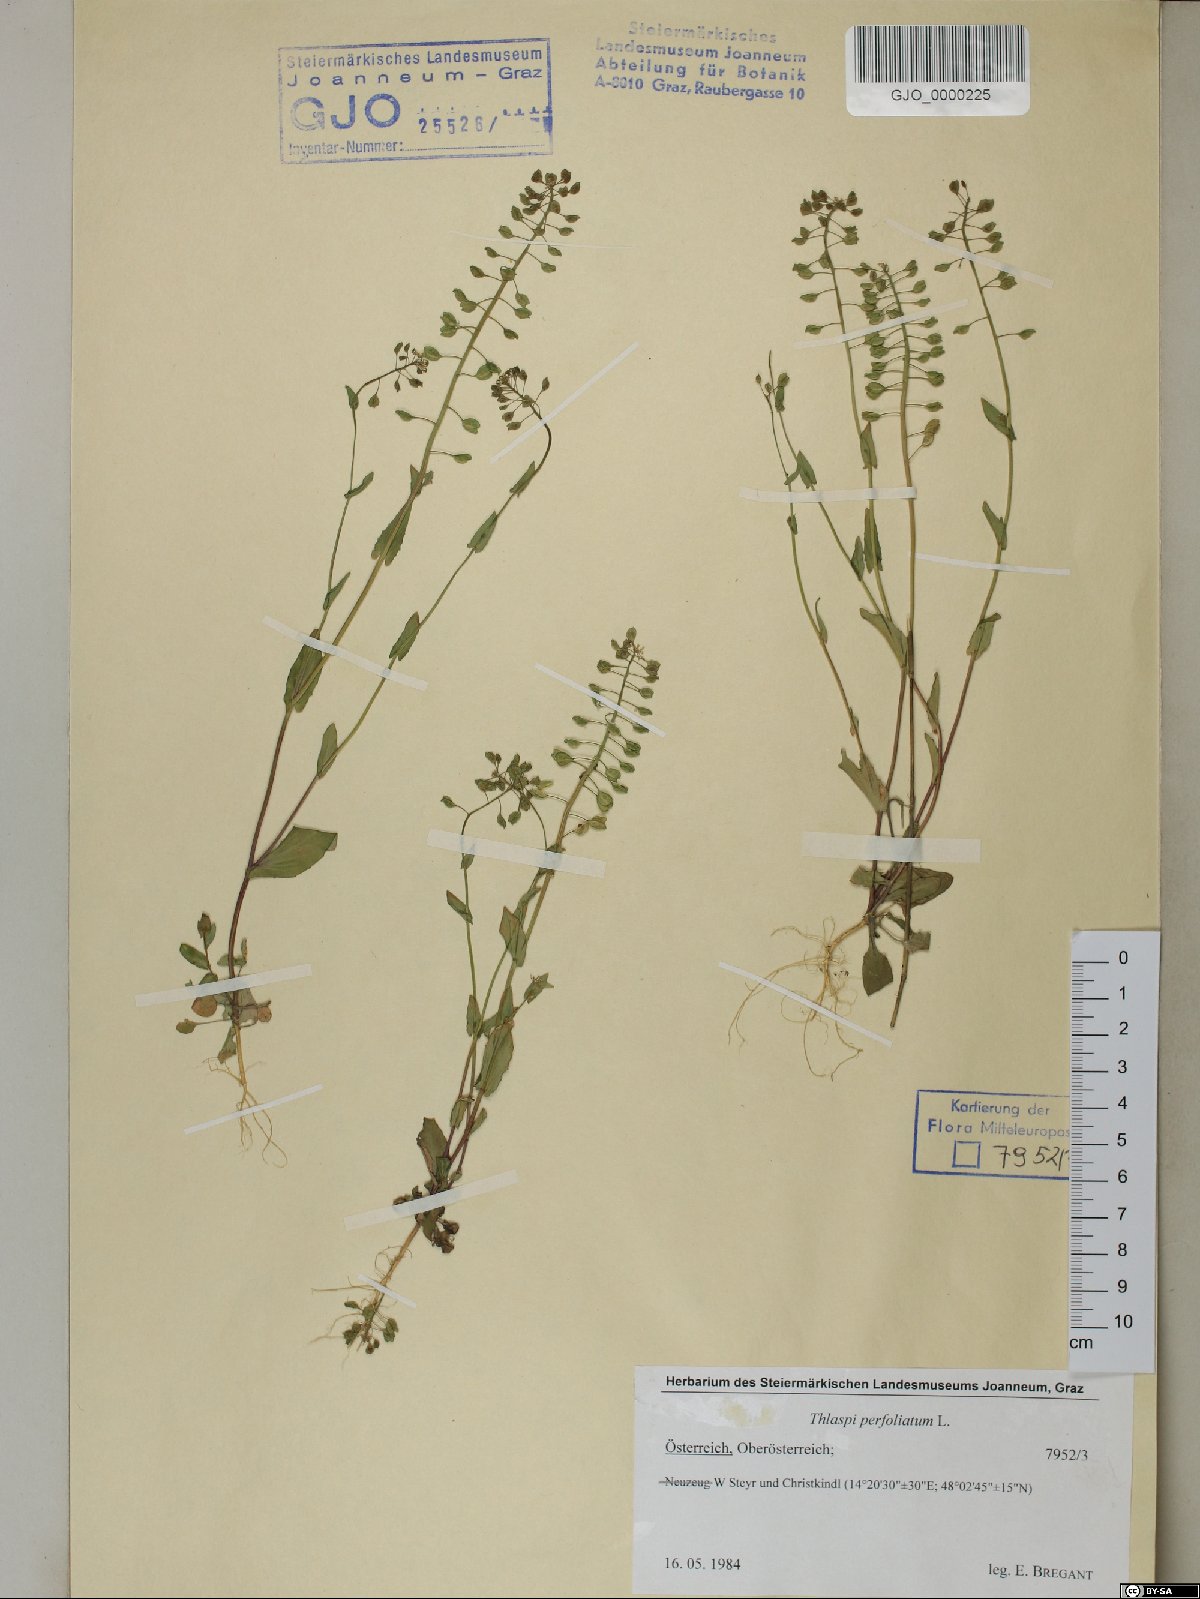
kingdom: Plantae
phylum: Tracheophyta
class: Magnoliopsida
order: Brassicales
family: Brassicaceae
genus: Noccaea
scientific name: Noccaea perfoliata
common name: Perfoliate pennycress
